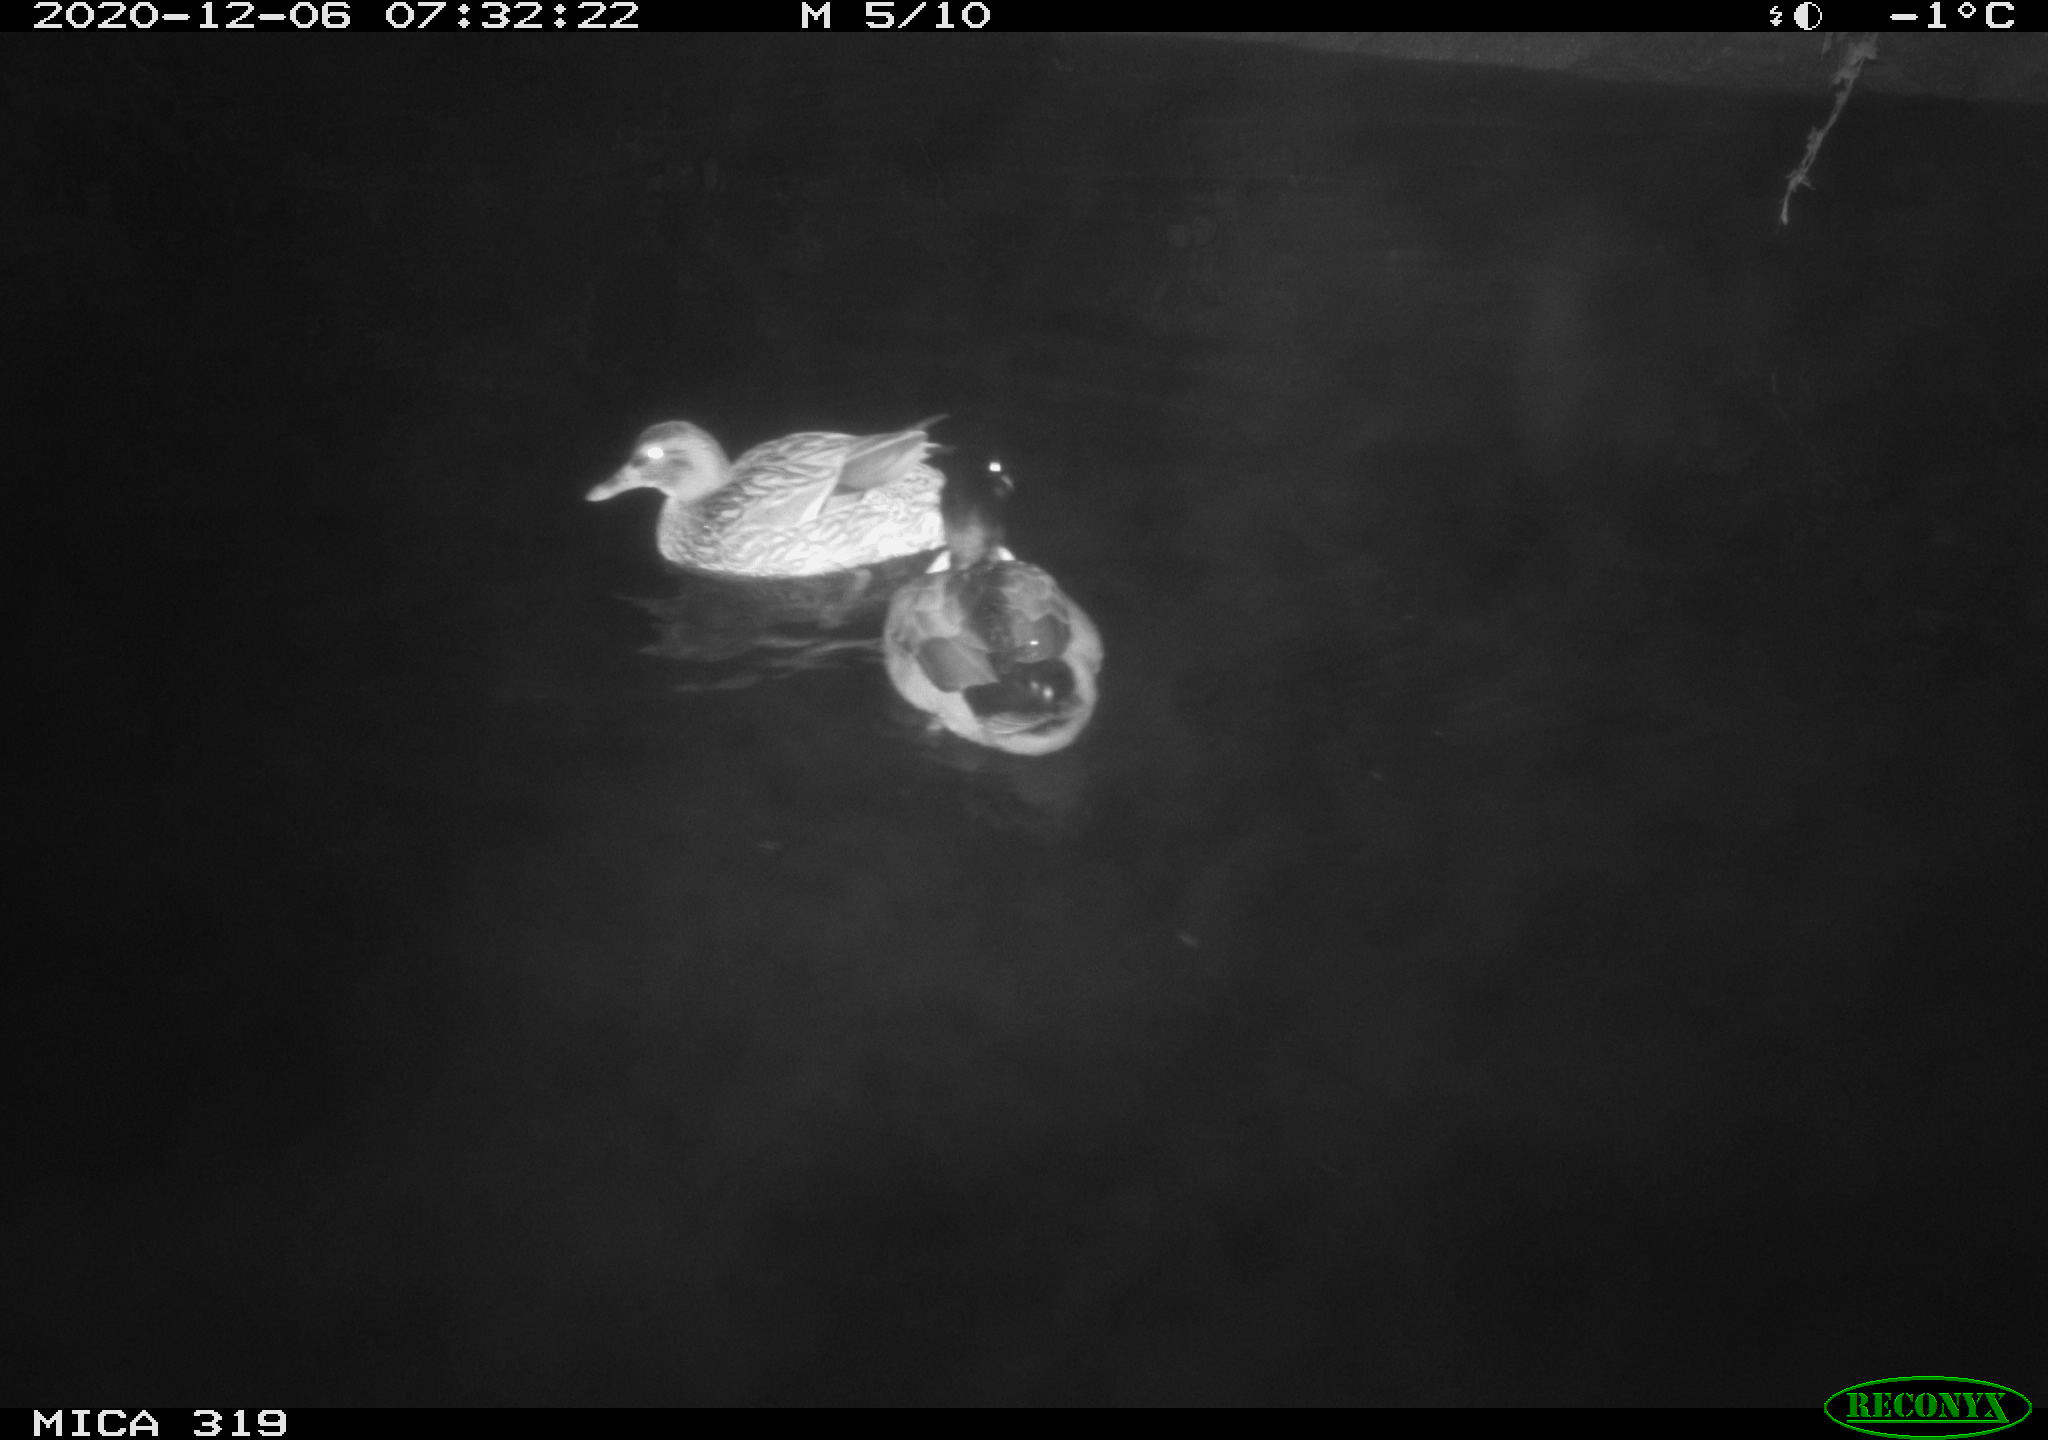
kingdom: Animalia
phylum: Chordata
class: Aves
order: Anseriformes
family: Anatidae
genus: Anas
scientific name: Anas platyrhynchos
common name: Mallard
